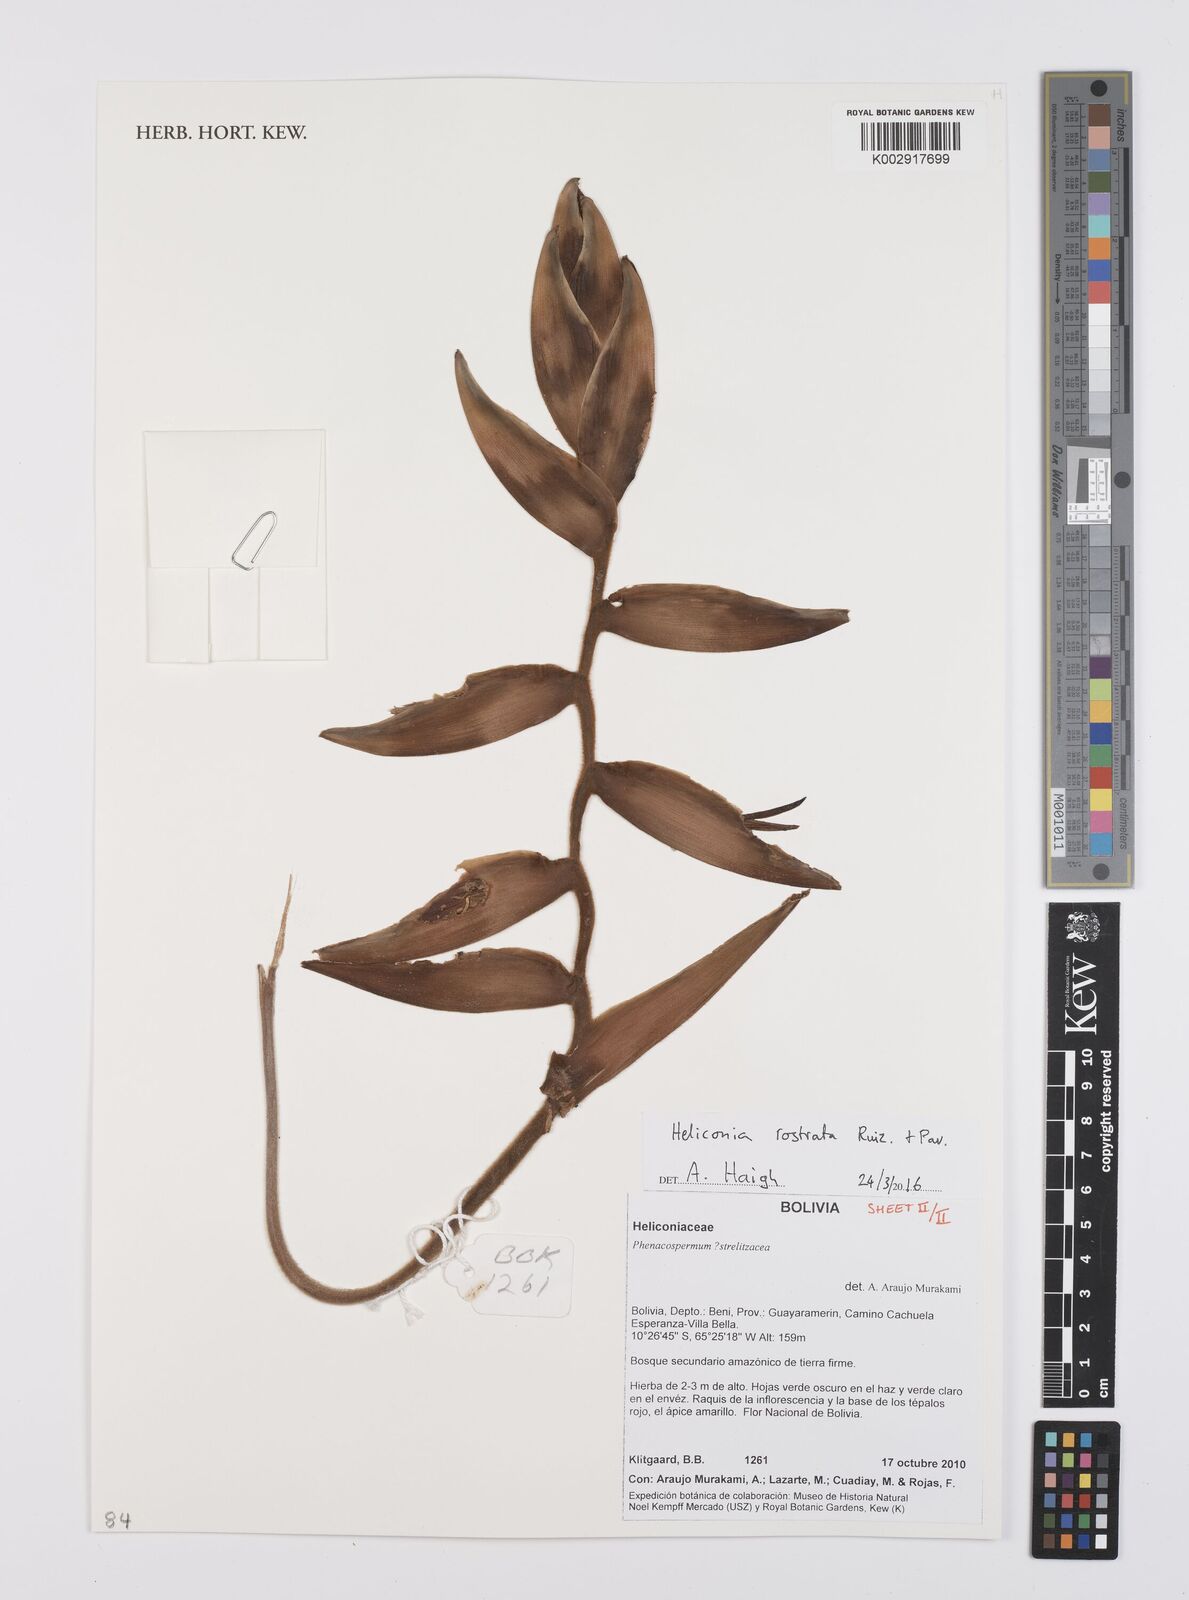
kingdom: Plantae
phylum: Tracheophyta
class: Liliopsida
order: Zingiberales
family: Heliconiaceae
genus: Heliconia
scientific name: Heliconia rostrata
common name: False bird of paradise
